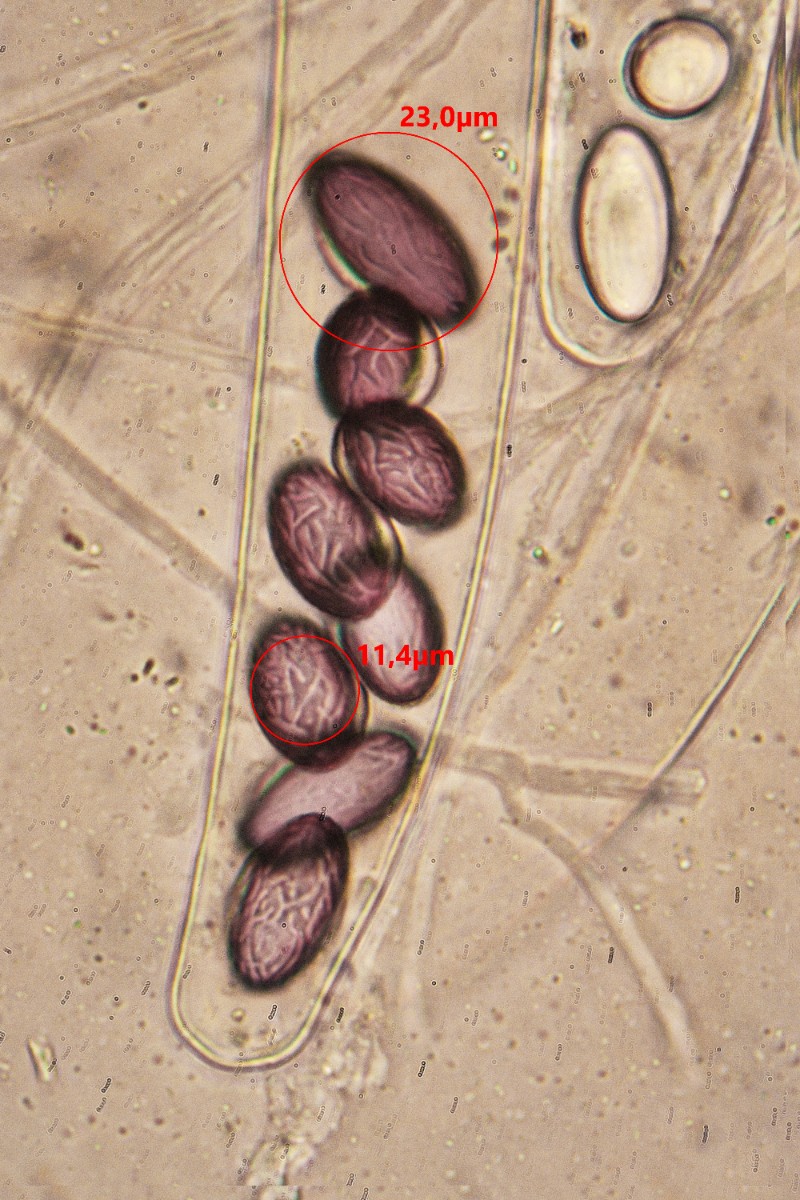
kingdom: Fungi
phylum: Ascomycota
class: Pezizomycetes
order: Pezizales
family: Ascobolaceae
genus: Ascobolus
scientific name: Ascobolus albidus
